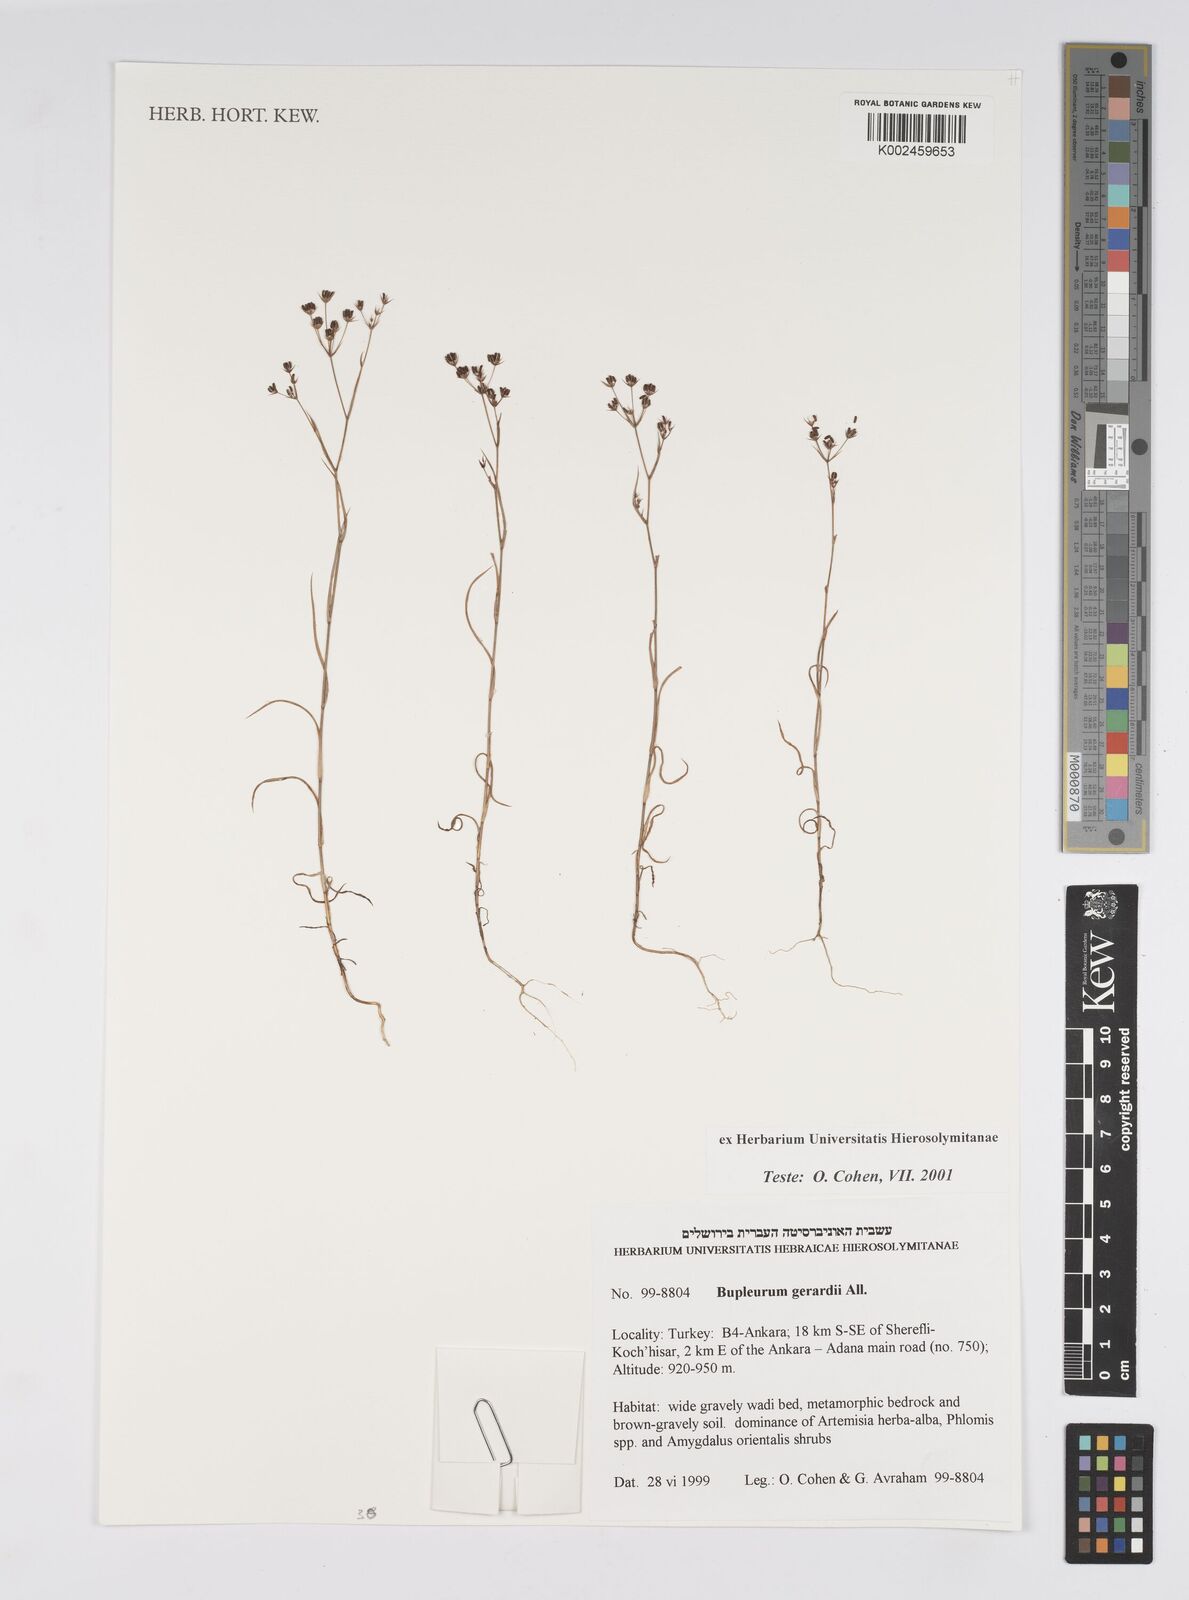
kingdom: Plantae
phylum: Tracheophyta
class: Magnoliopsida
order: Apiales
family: Apiaceae
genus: Bupleurum
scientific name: Bupleurum gerardi
